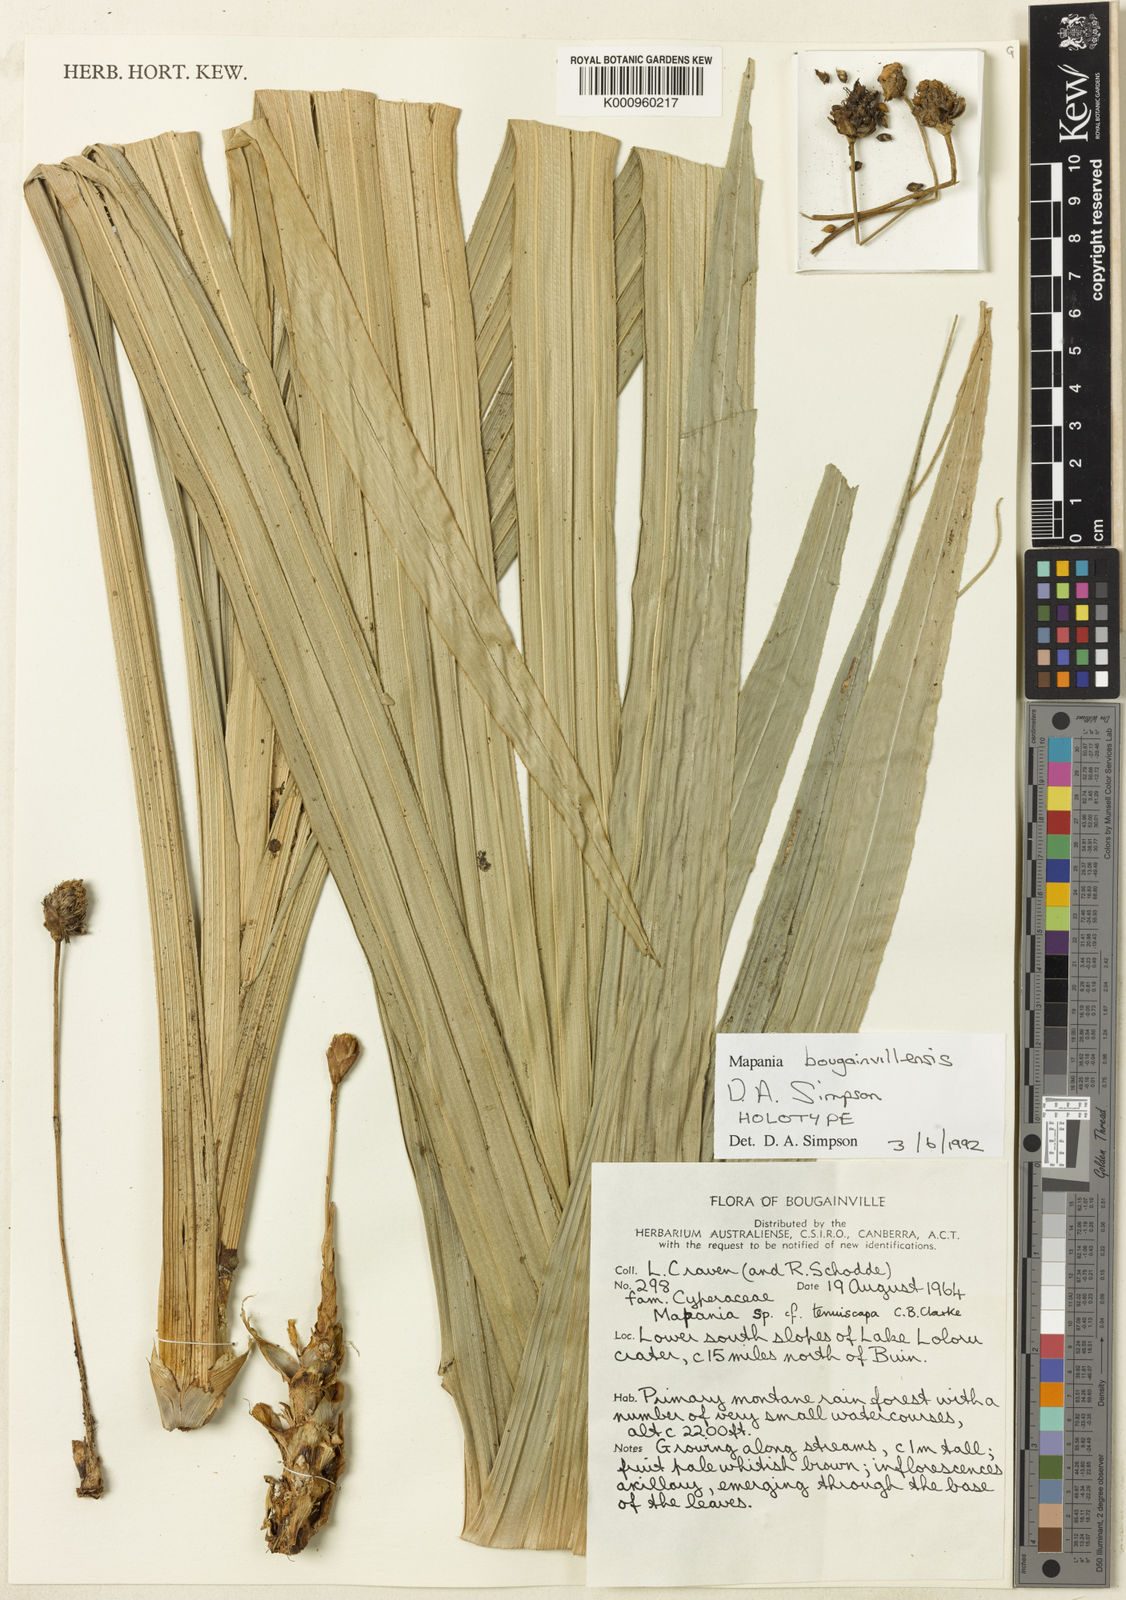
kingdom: Plantae
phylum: Tracheophyta
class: Liliopsida
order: Poales
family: Cyperaceae
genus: Mapania
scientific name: Mapania bougainvillensis
